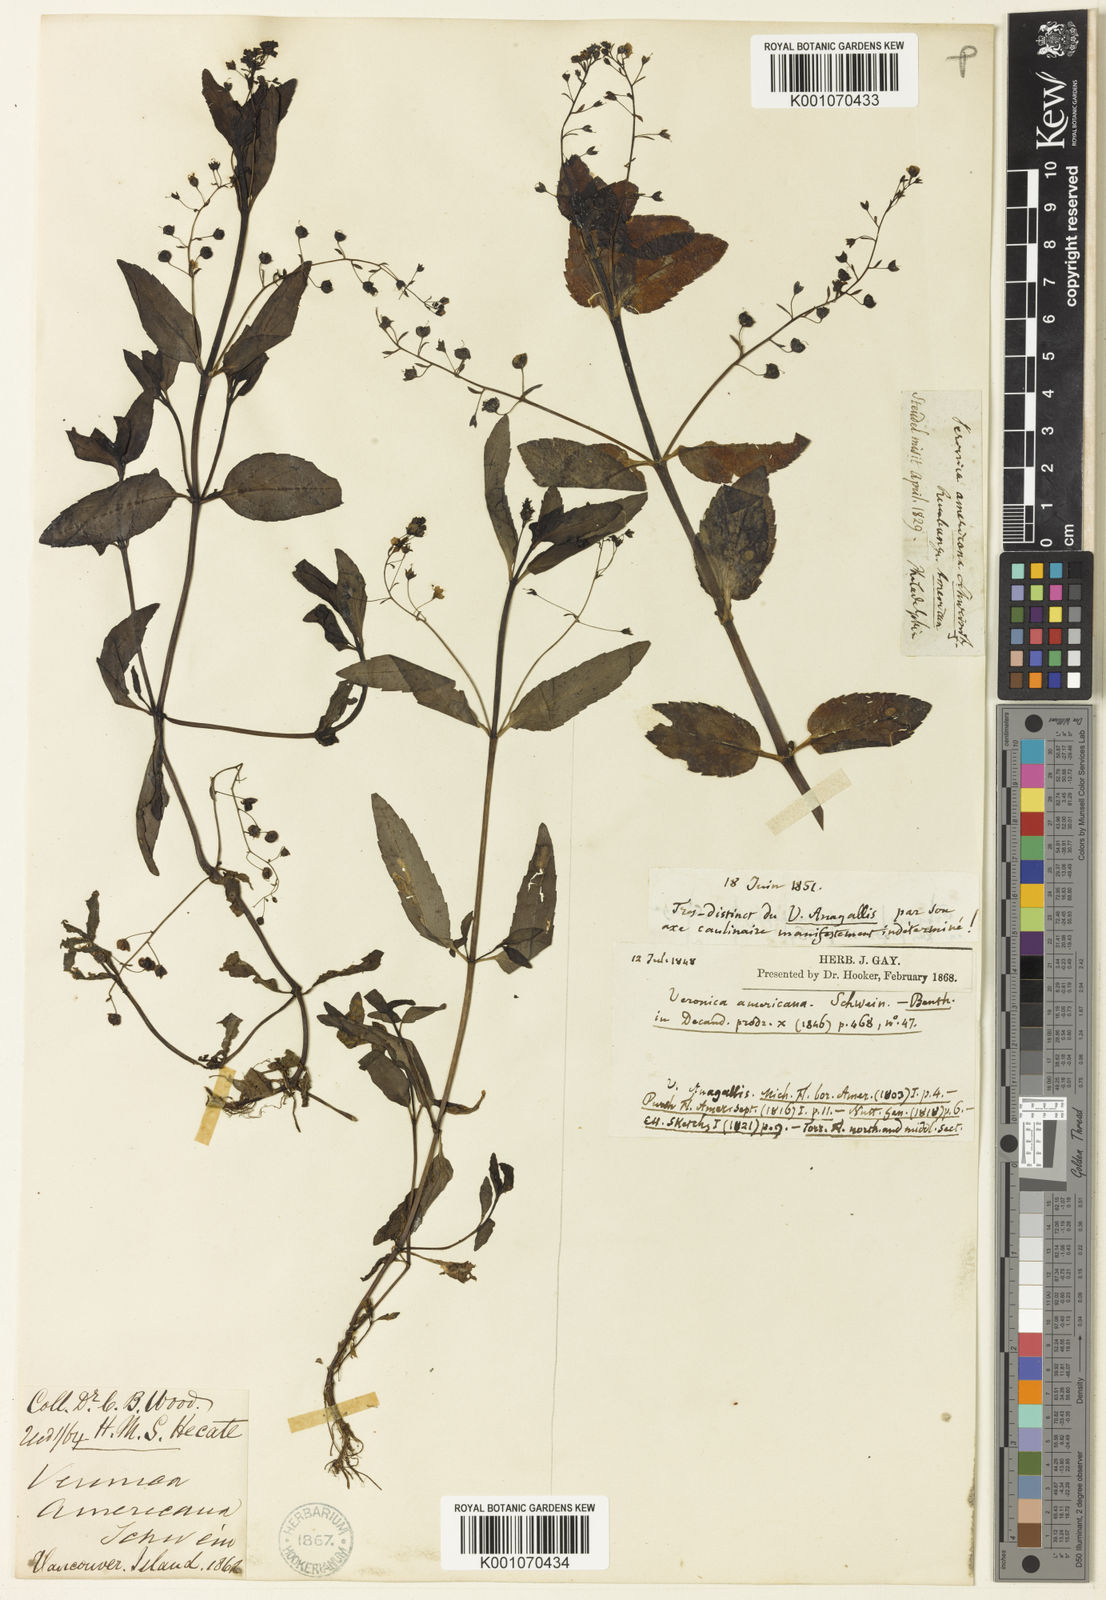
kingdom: Plantae
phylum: Tracheophyta
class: Magnoliopsida
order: Lamiales
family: Plantaginaceae
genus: Veronica
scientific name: Veronica americana
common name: American brooklime
